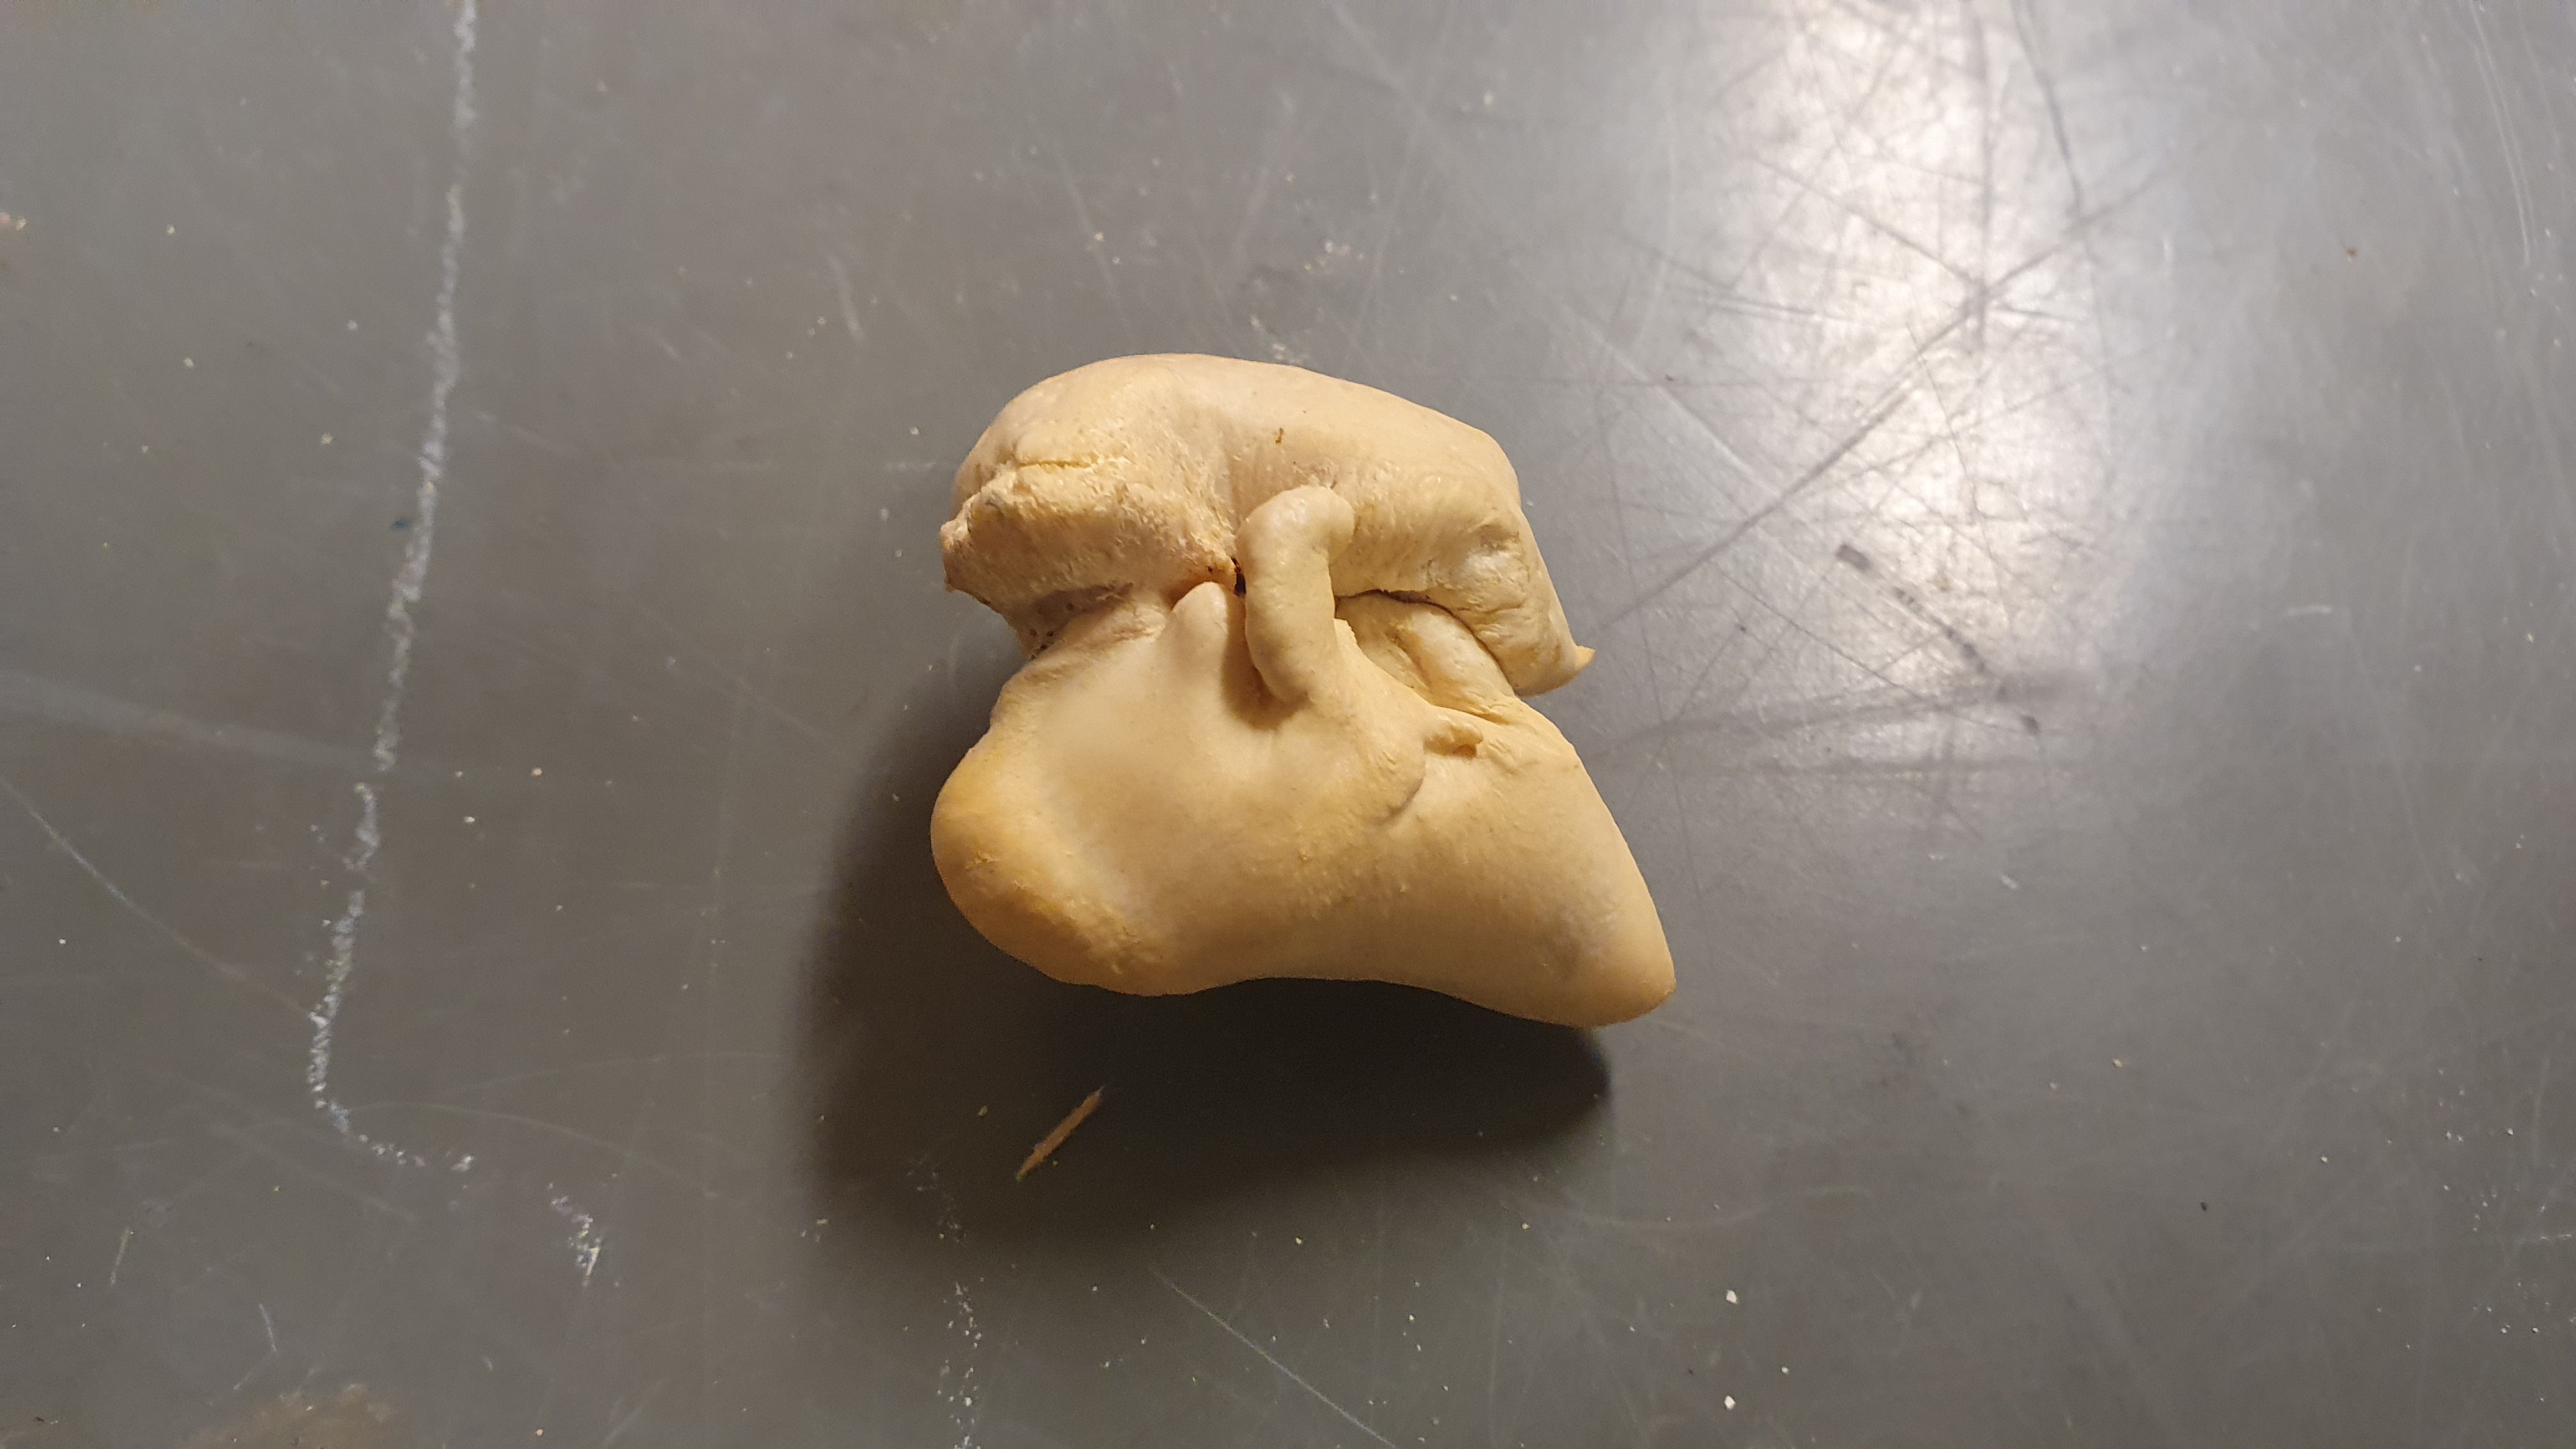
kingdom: Animalia
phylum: Chordata
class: Mammalia
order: Cetacea
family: Delphinidae
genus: Delphinus
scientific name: Delphinus
